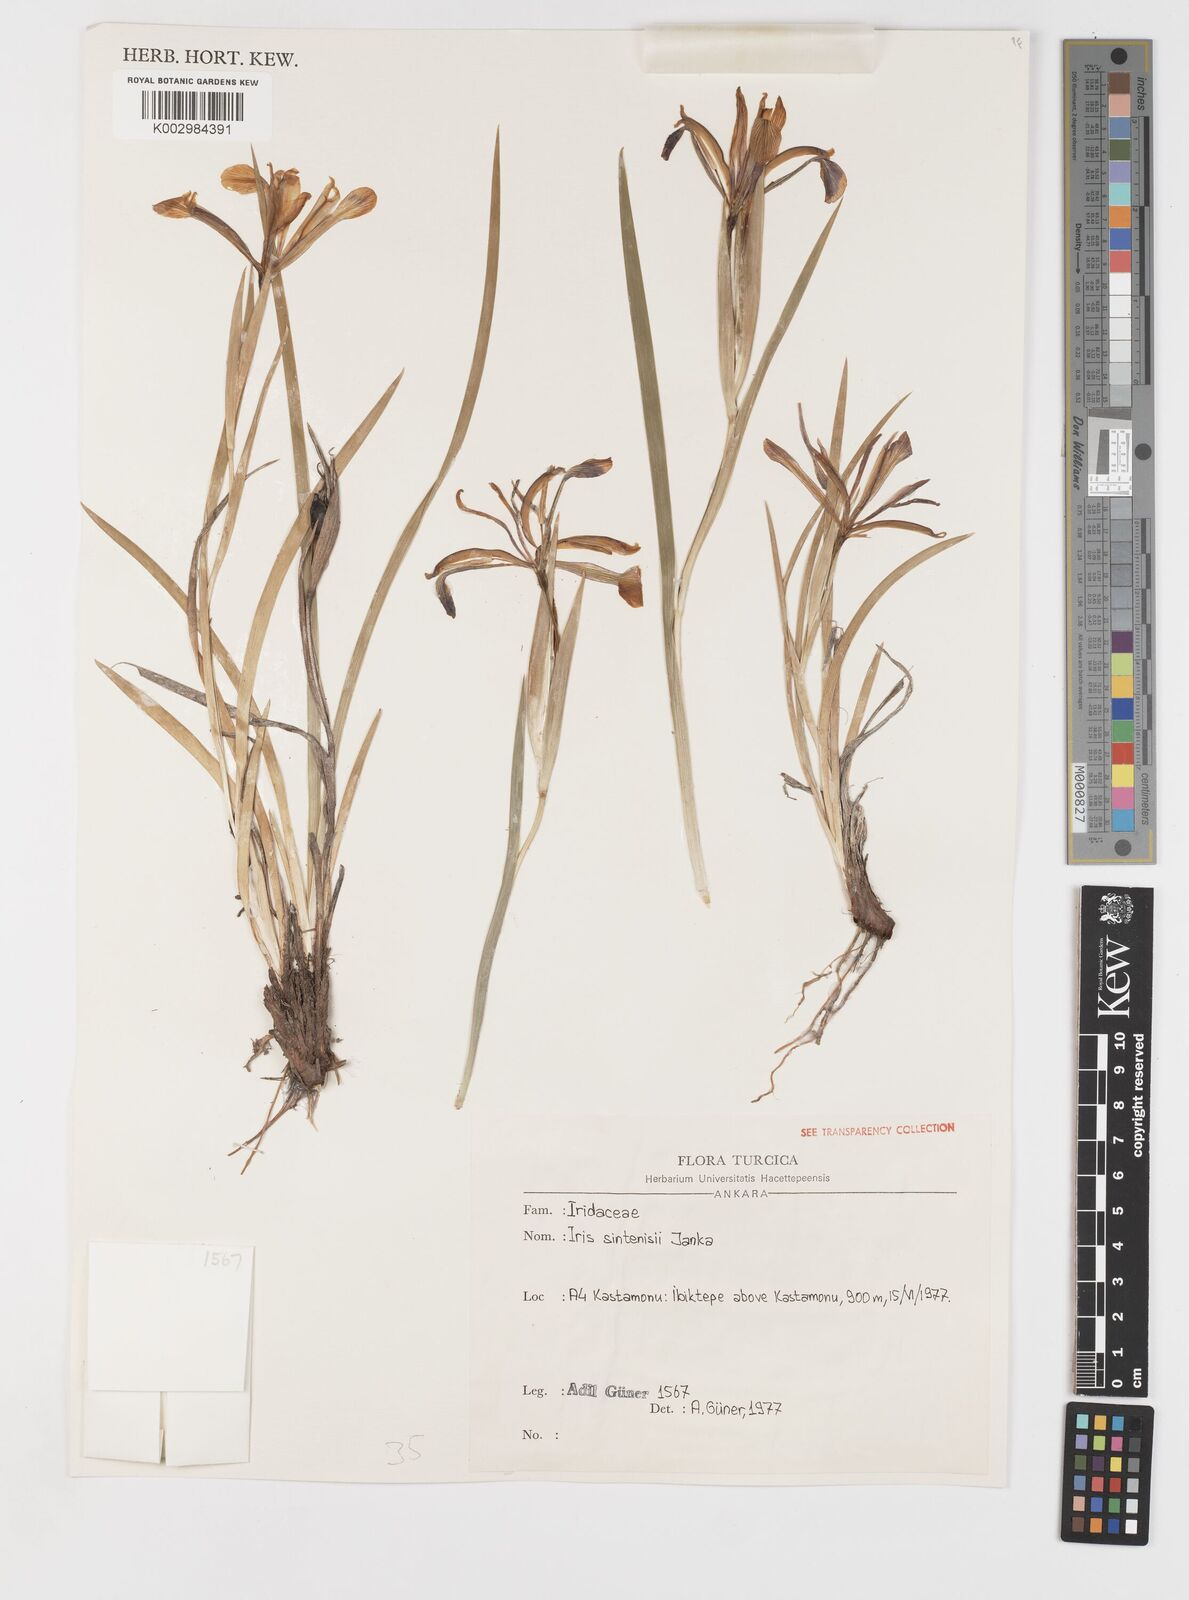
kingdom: Plantae
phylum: Tracheophyta
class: Liliopsida
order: Asparagales
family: Iridaceae
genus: Iris
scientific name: Iris sintenisii
